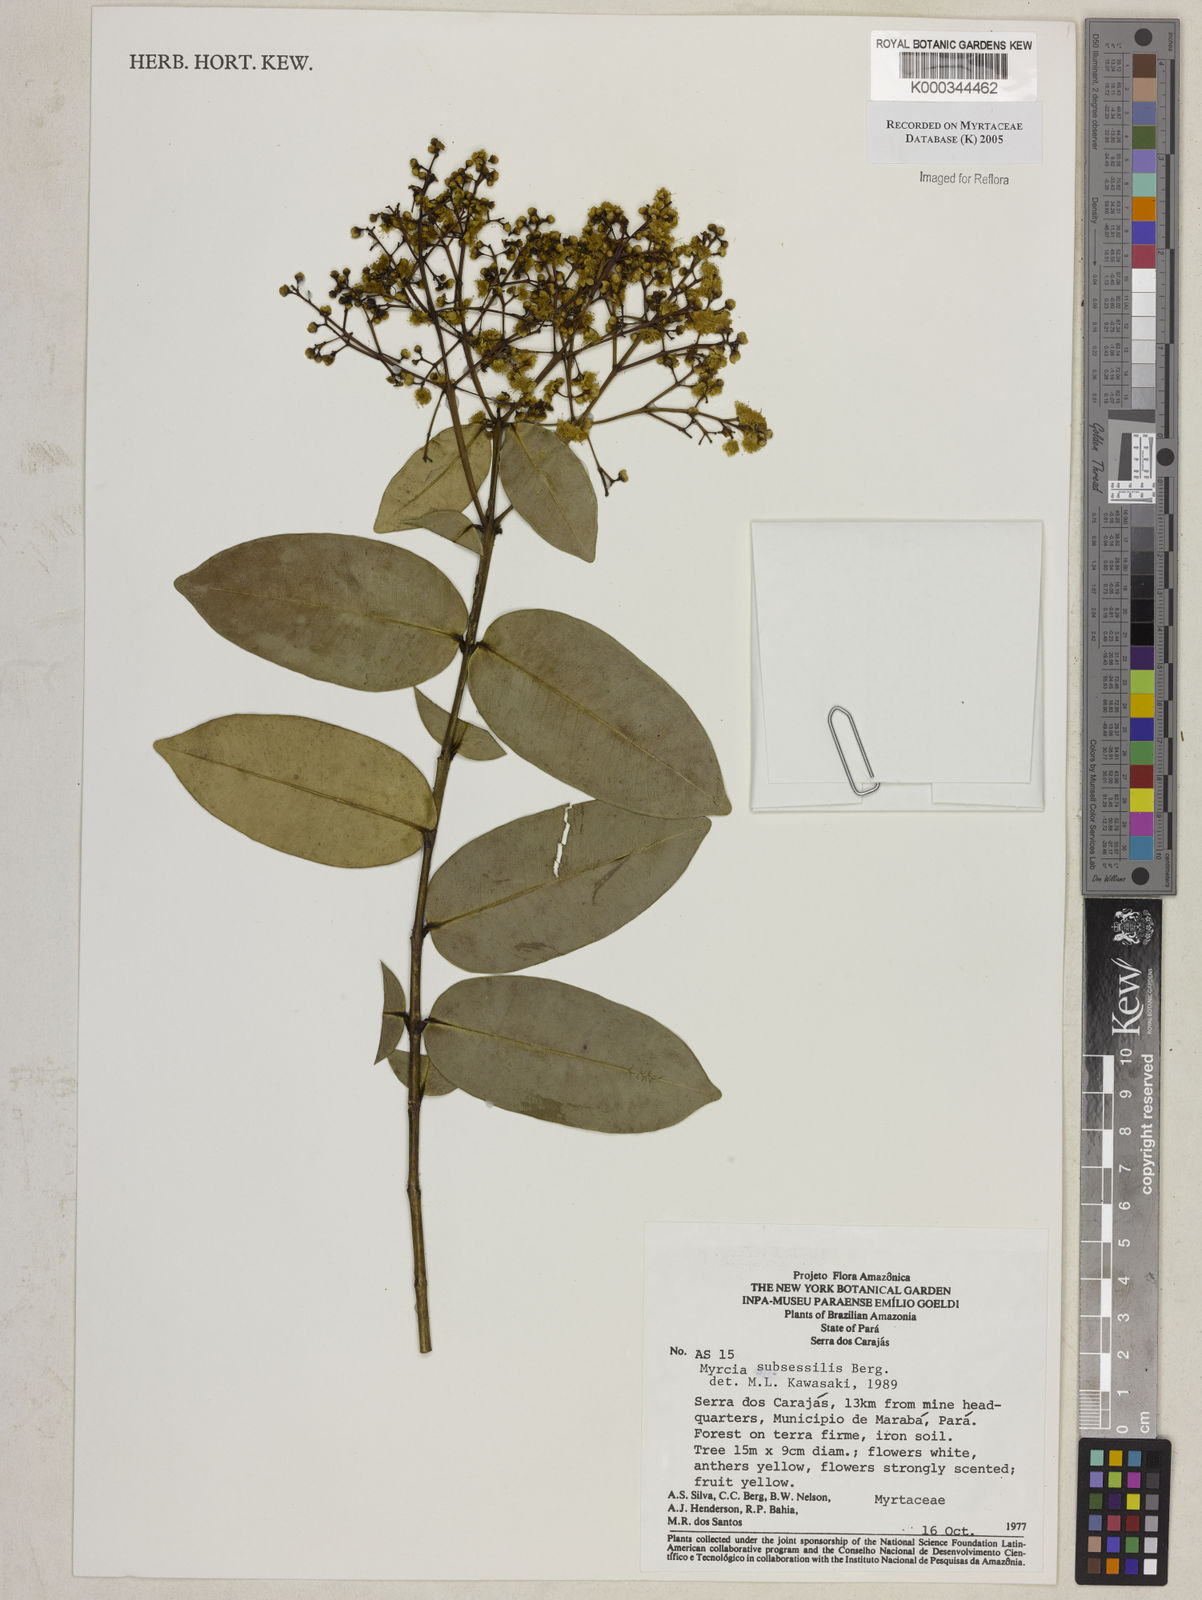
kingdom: Plantae
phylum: Tracheophyta
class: Magnoliopsida
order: Myrtales
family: Myrtaceae
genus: Myrcia
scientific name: Myrcia subsessilis
